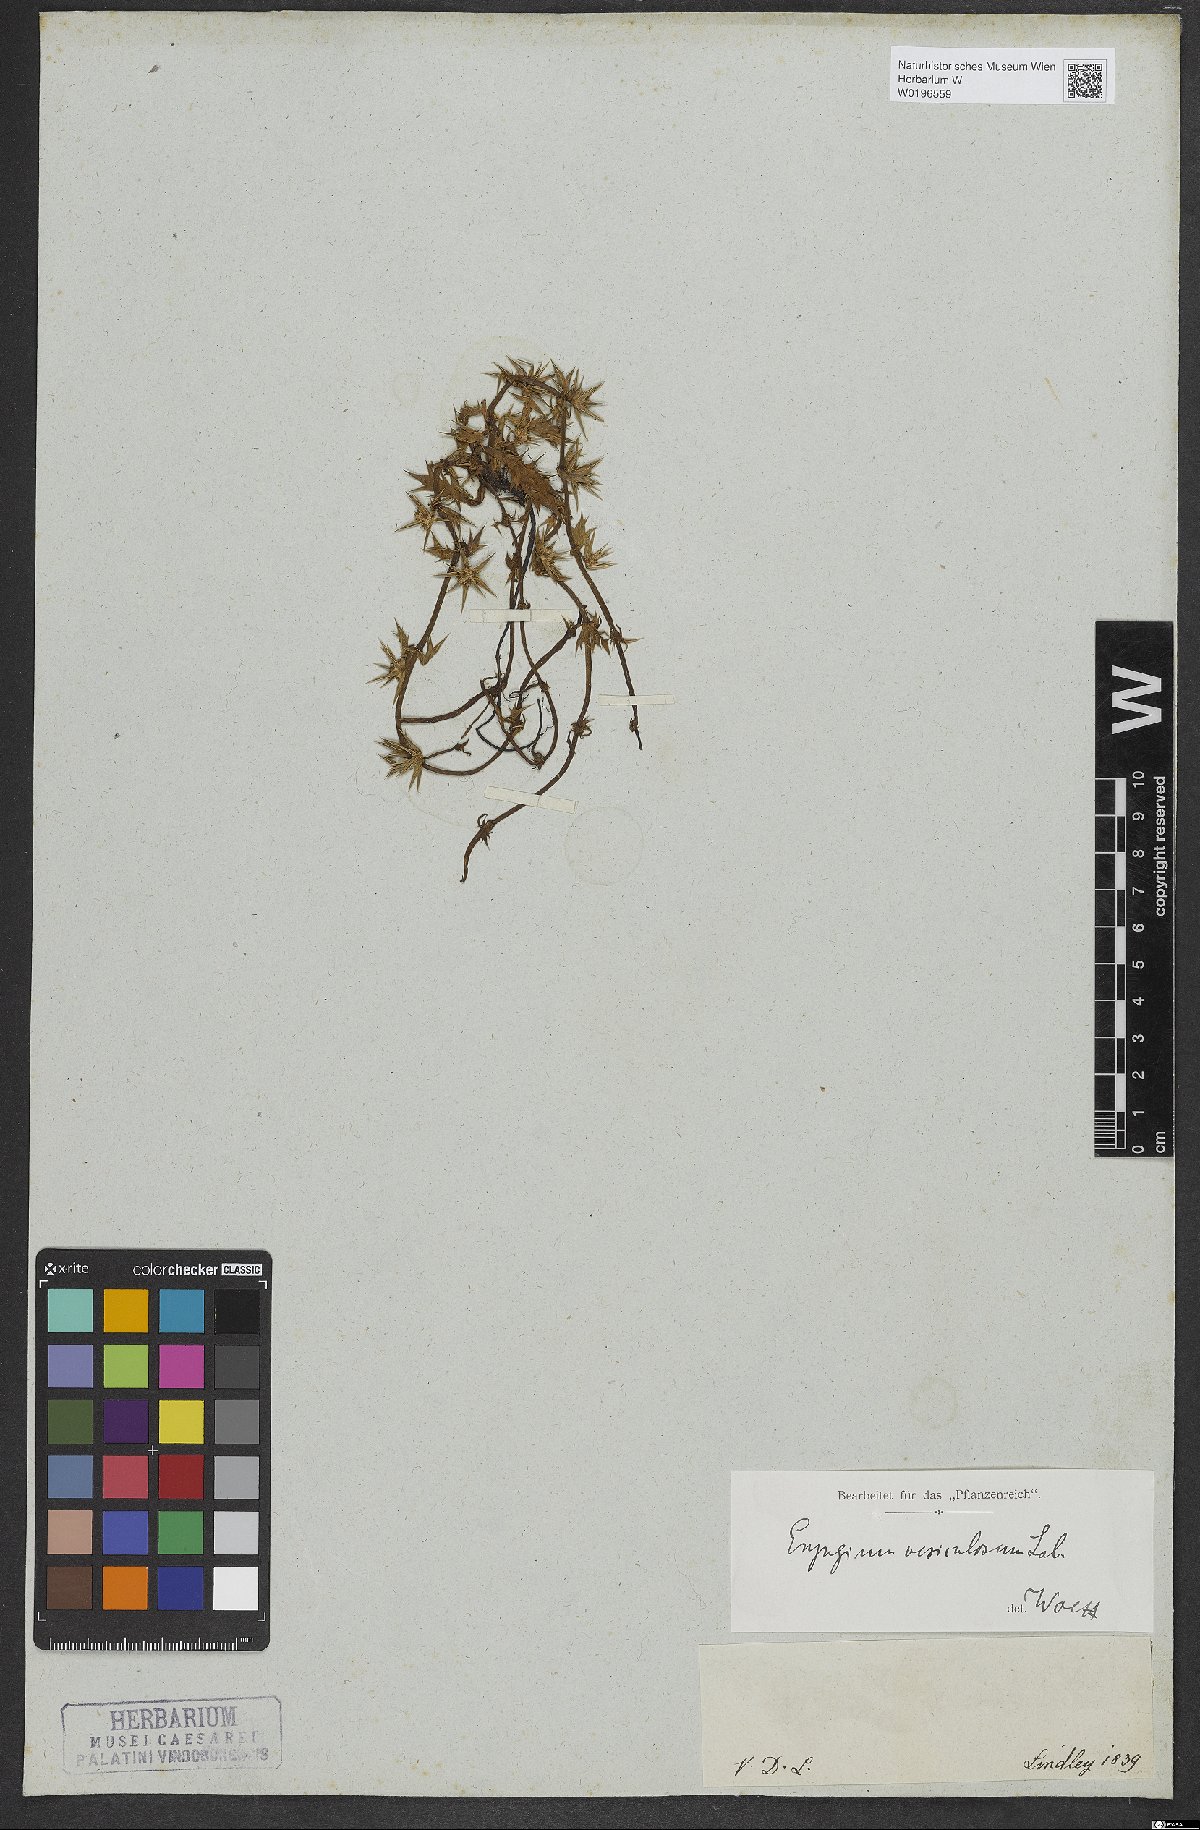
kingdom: Plantae
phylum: Tracheophyta
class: Magnoliopsida
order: Apiales
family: Apiaceae
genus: Eryngium
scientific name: Eryngium vesiculosum
